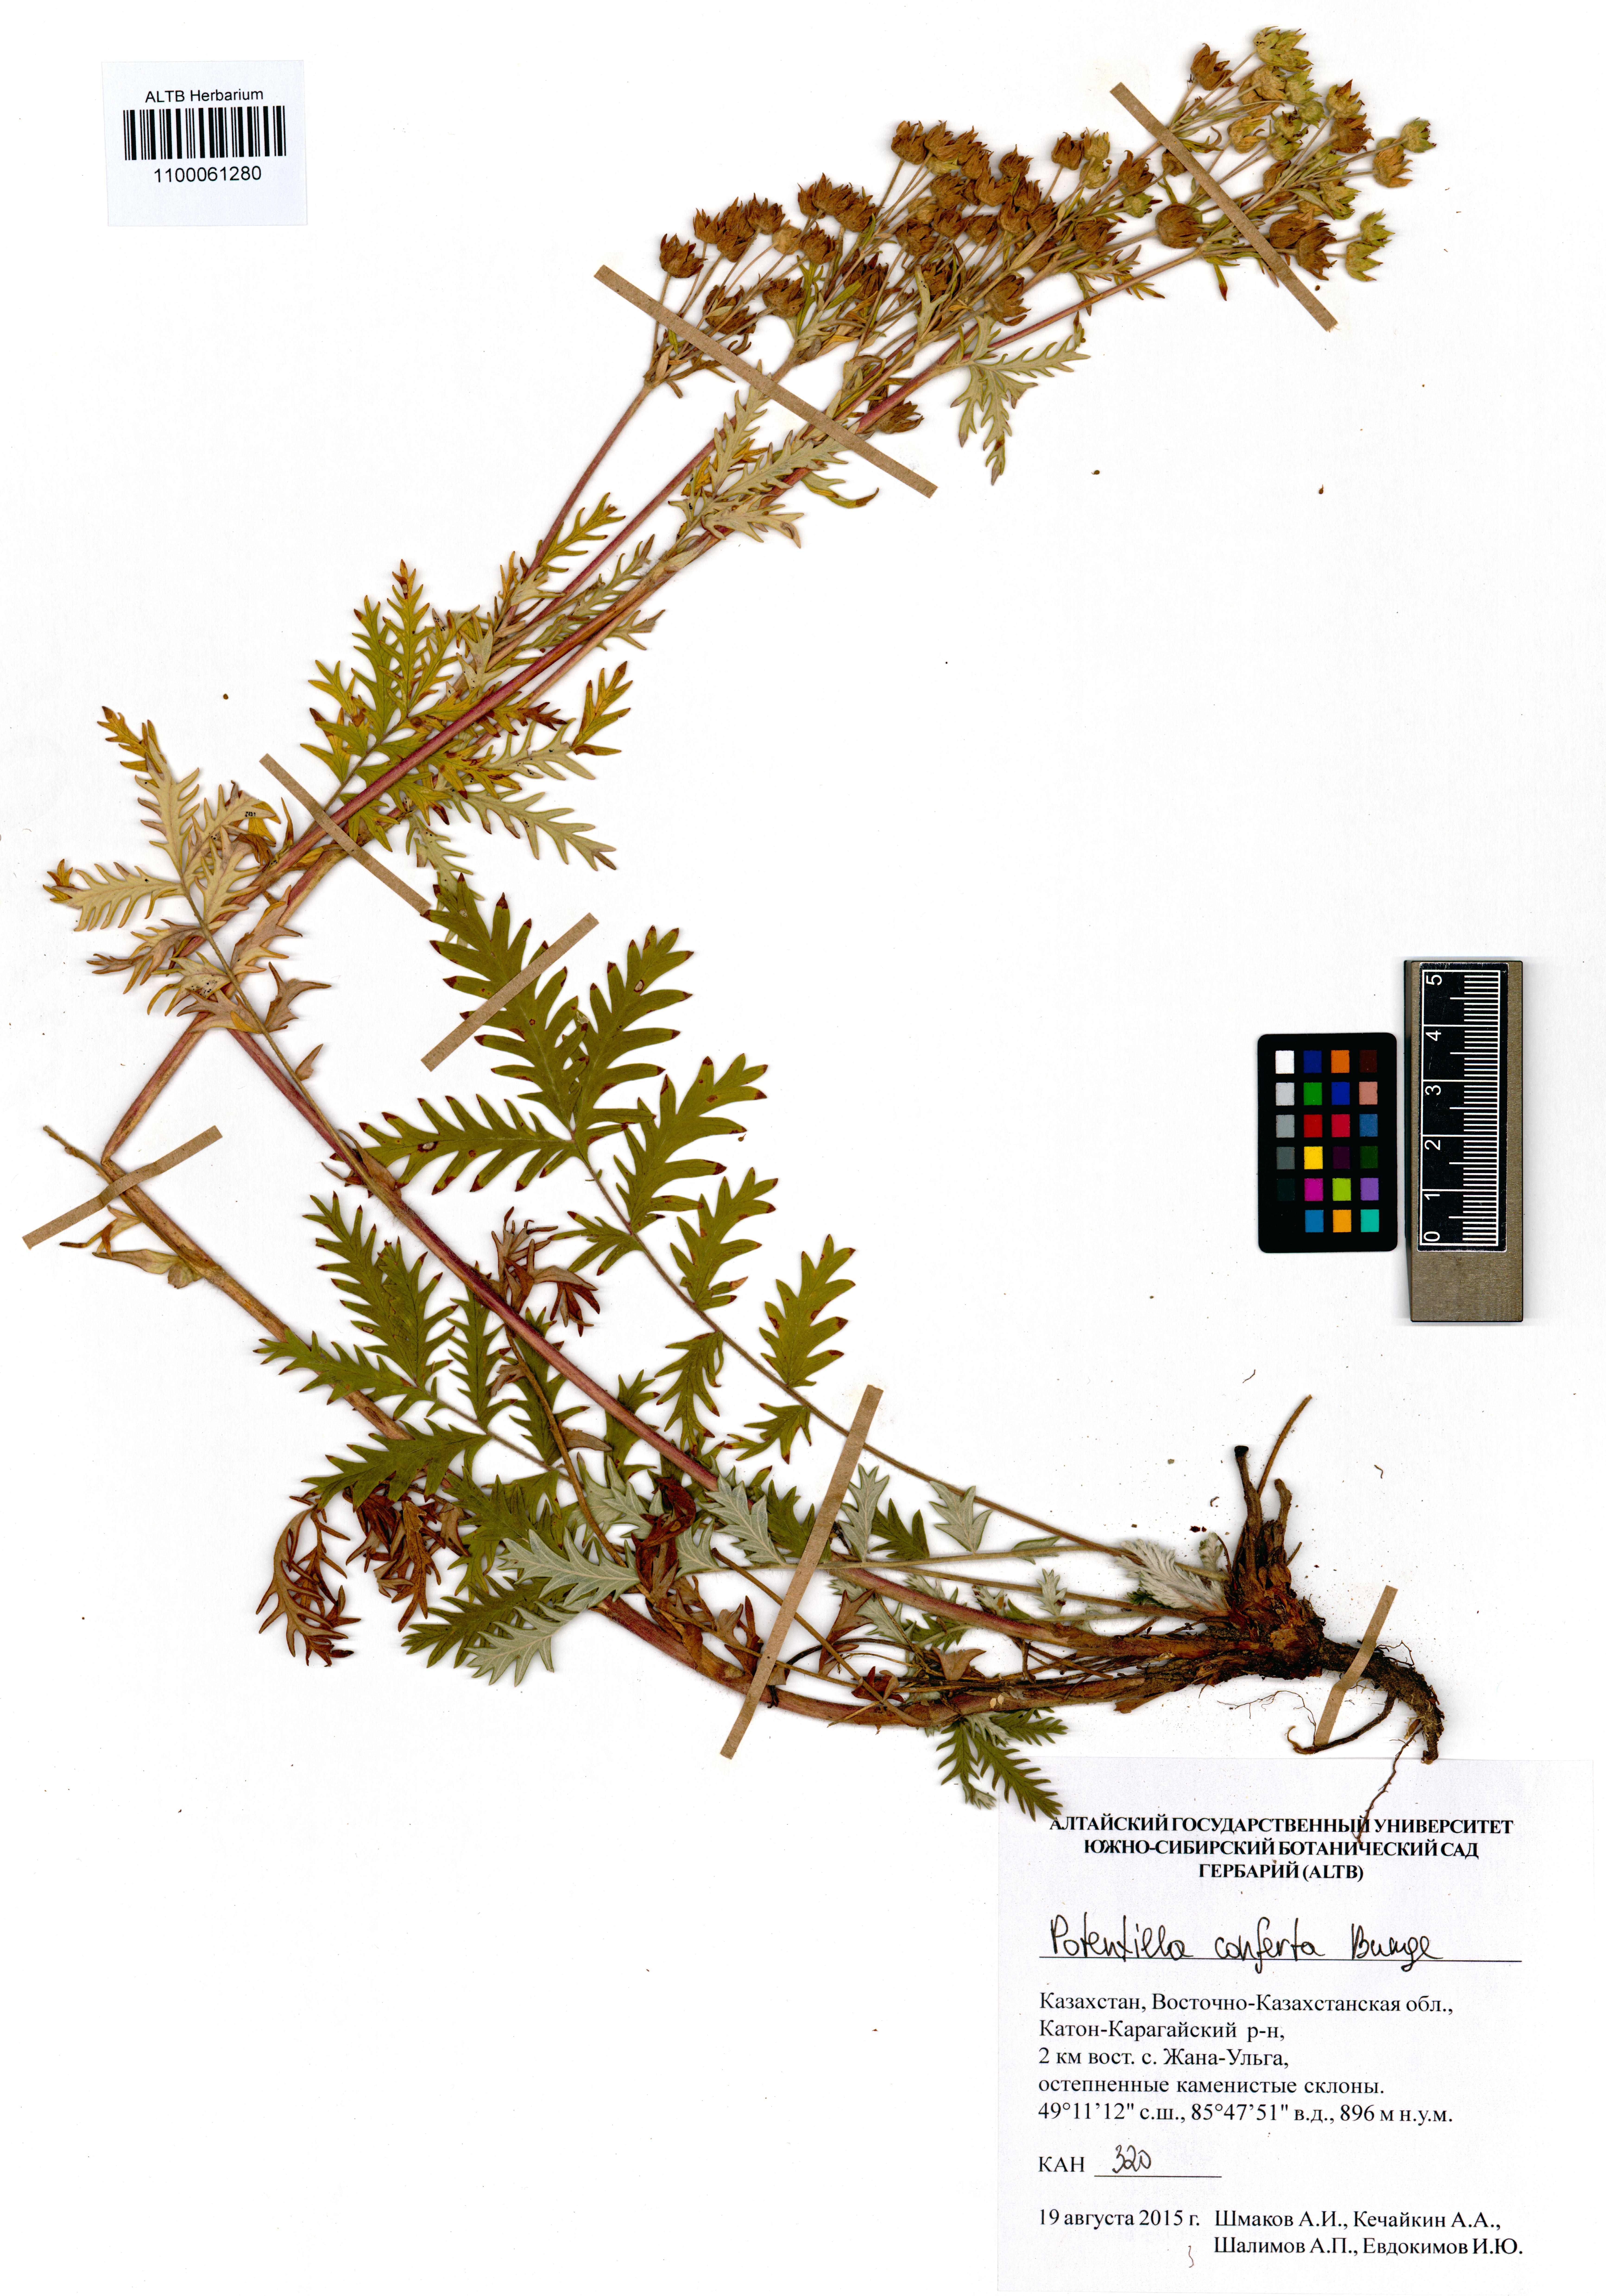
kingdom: Plantae
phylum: Tracheophyta
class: Magnoliopsida
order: Rosales
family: Rosaceae
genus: Potentilla
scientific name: Potentilla conferta
